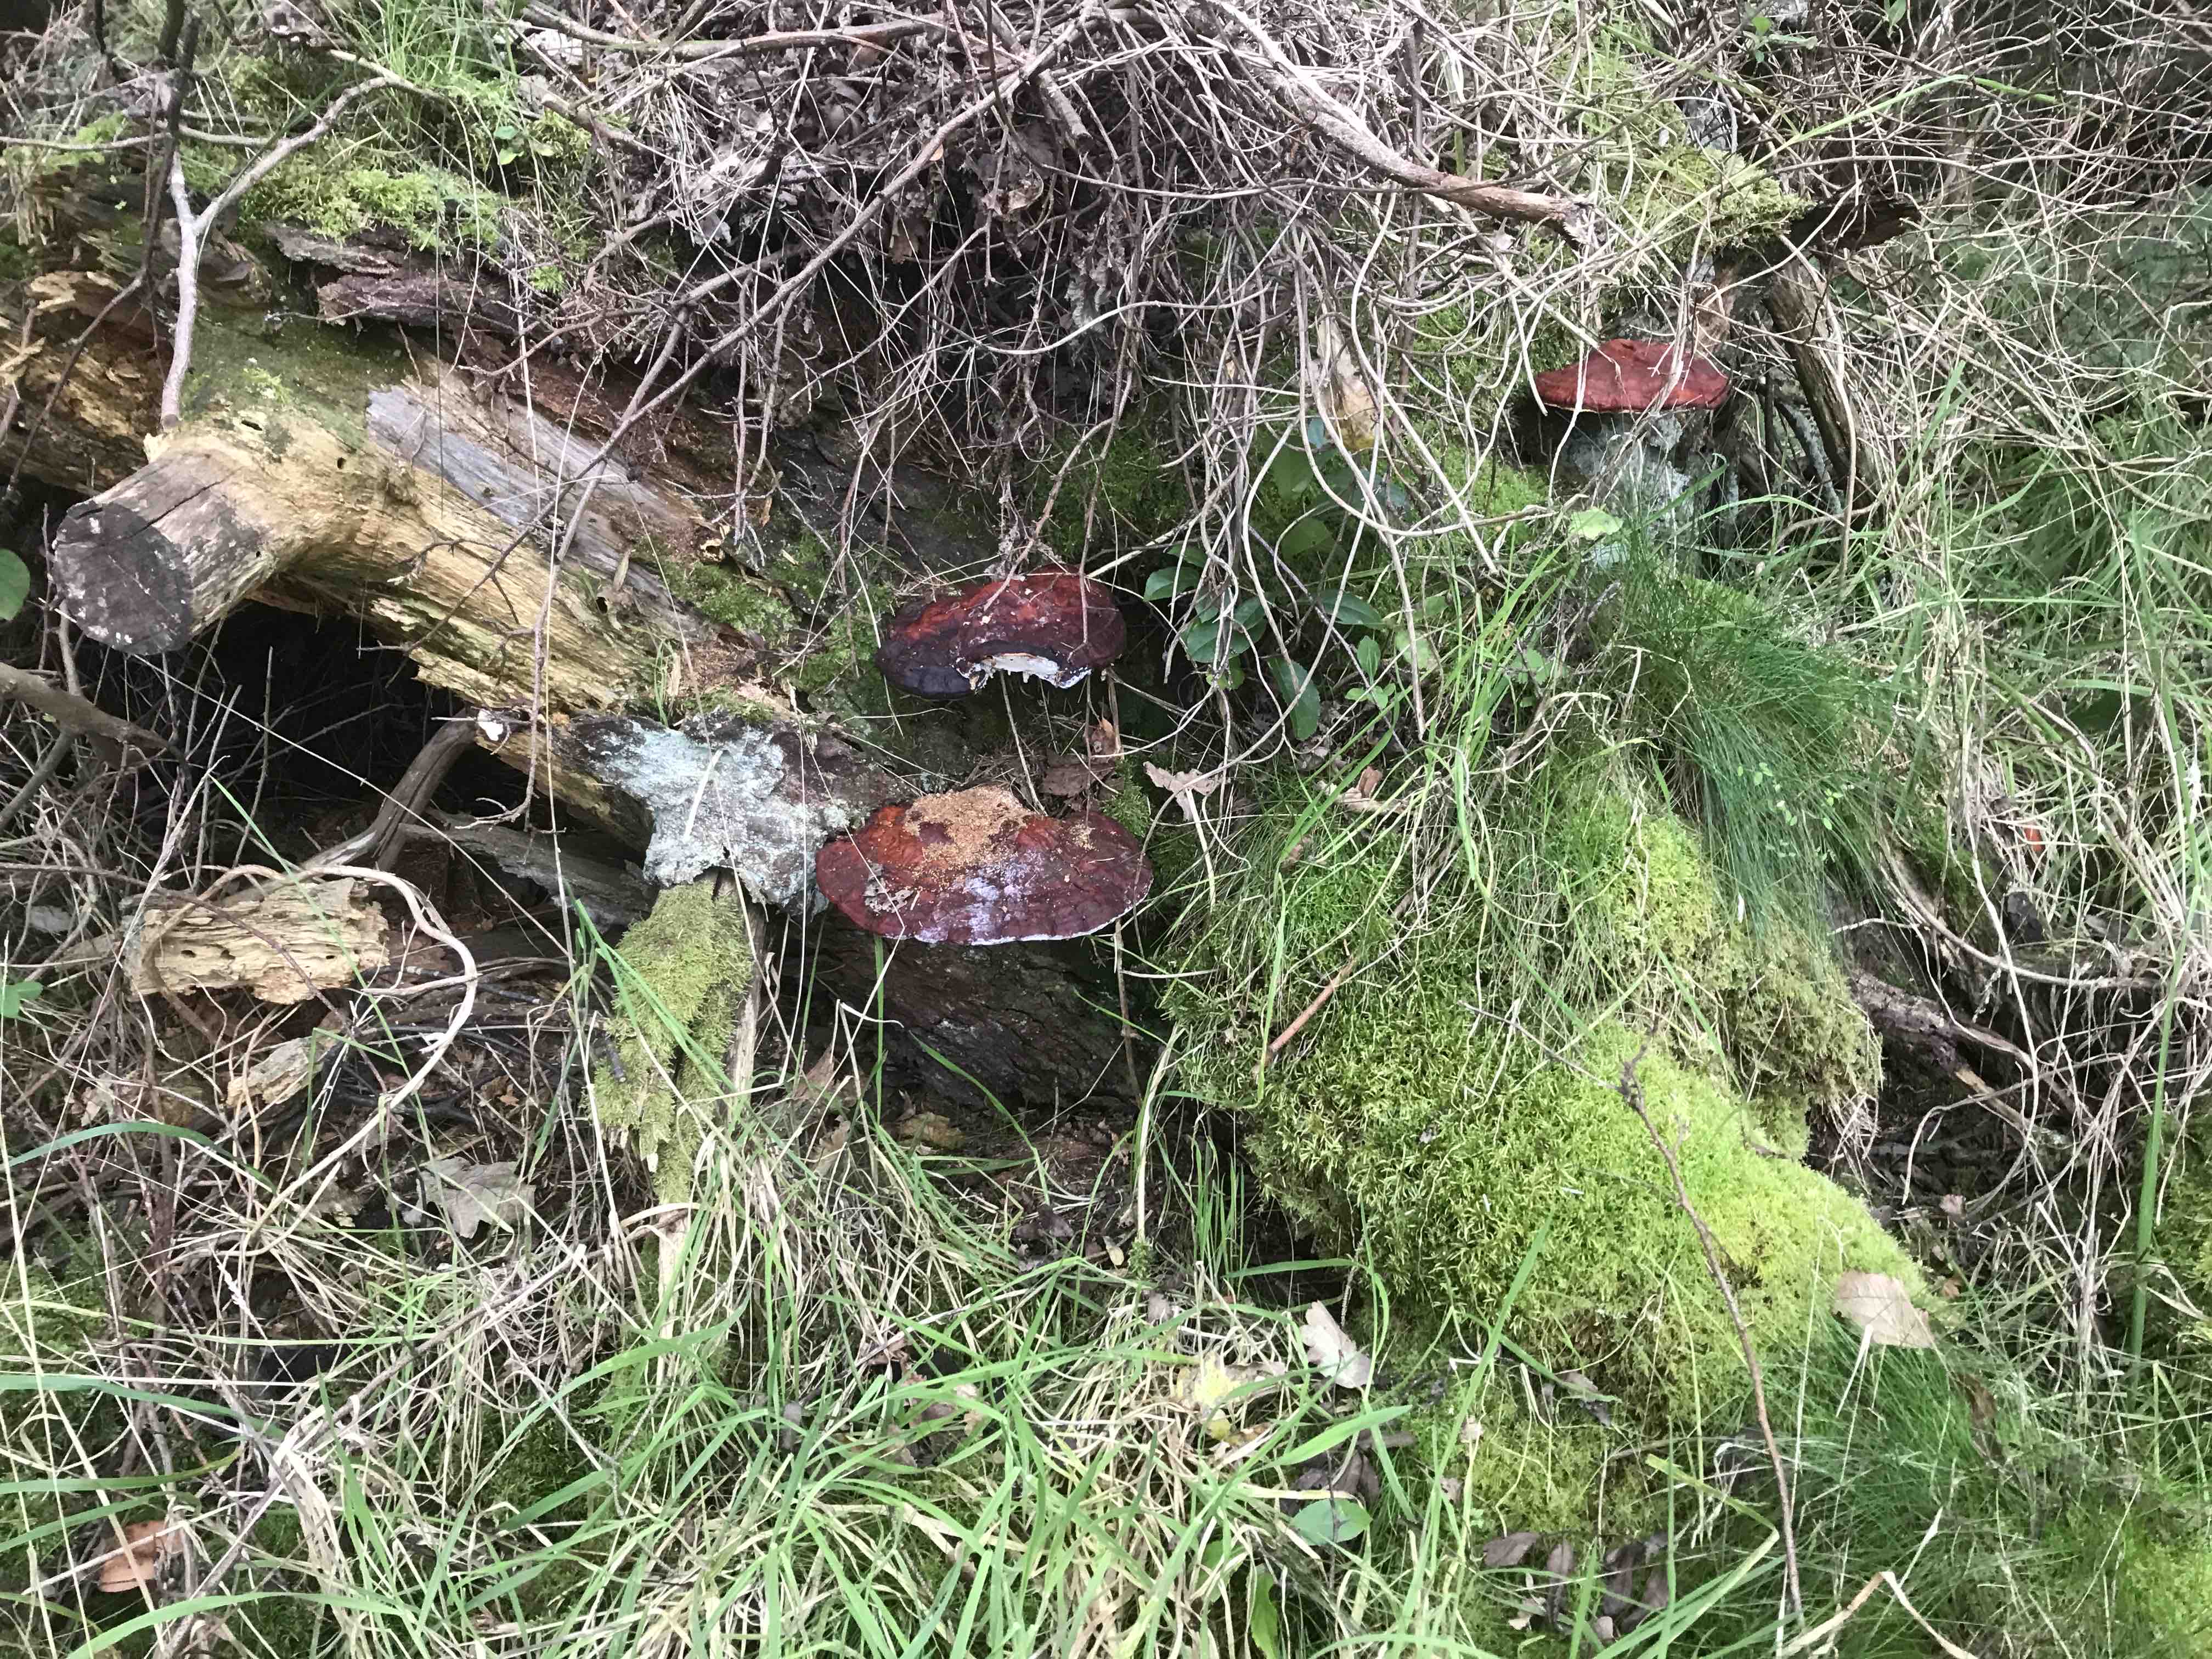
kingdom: Fungi
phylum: Basidiomycota
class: Agaricomycetes
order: Polyporales
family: Polyporaceae
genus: Ganoderma
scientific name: Ganoderma lucidum
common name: skinnende lakporesvamp
